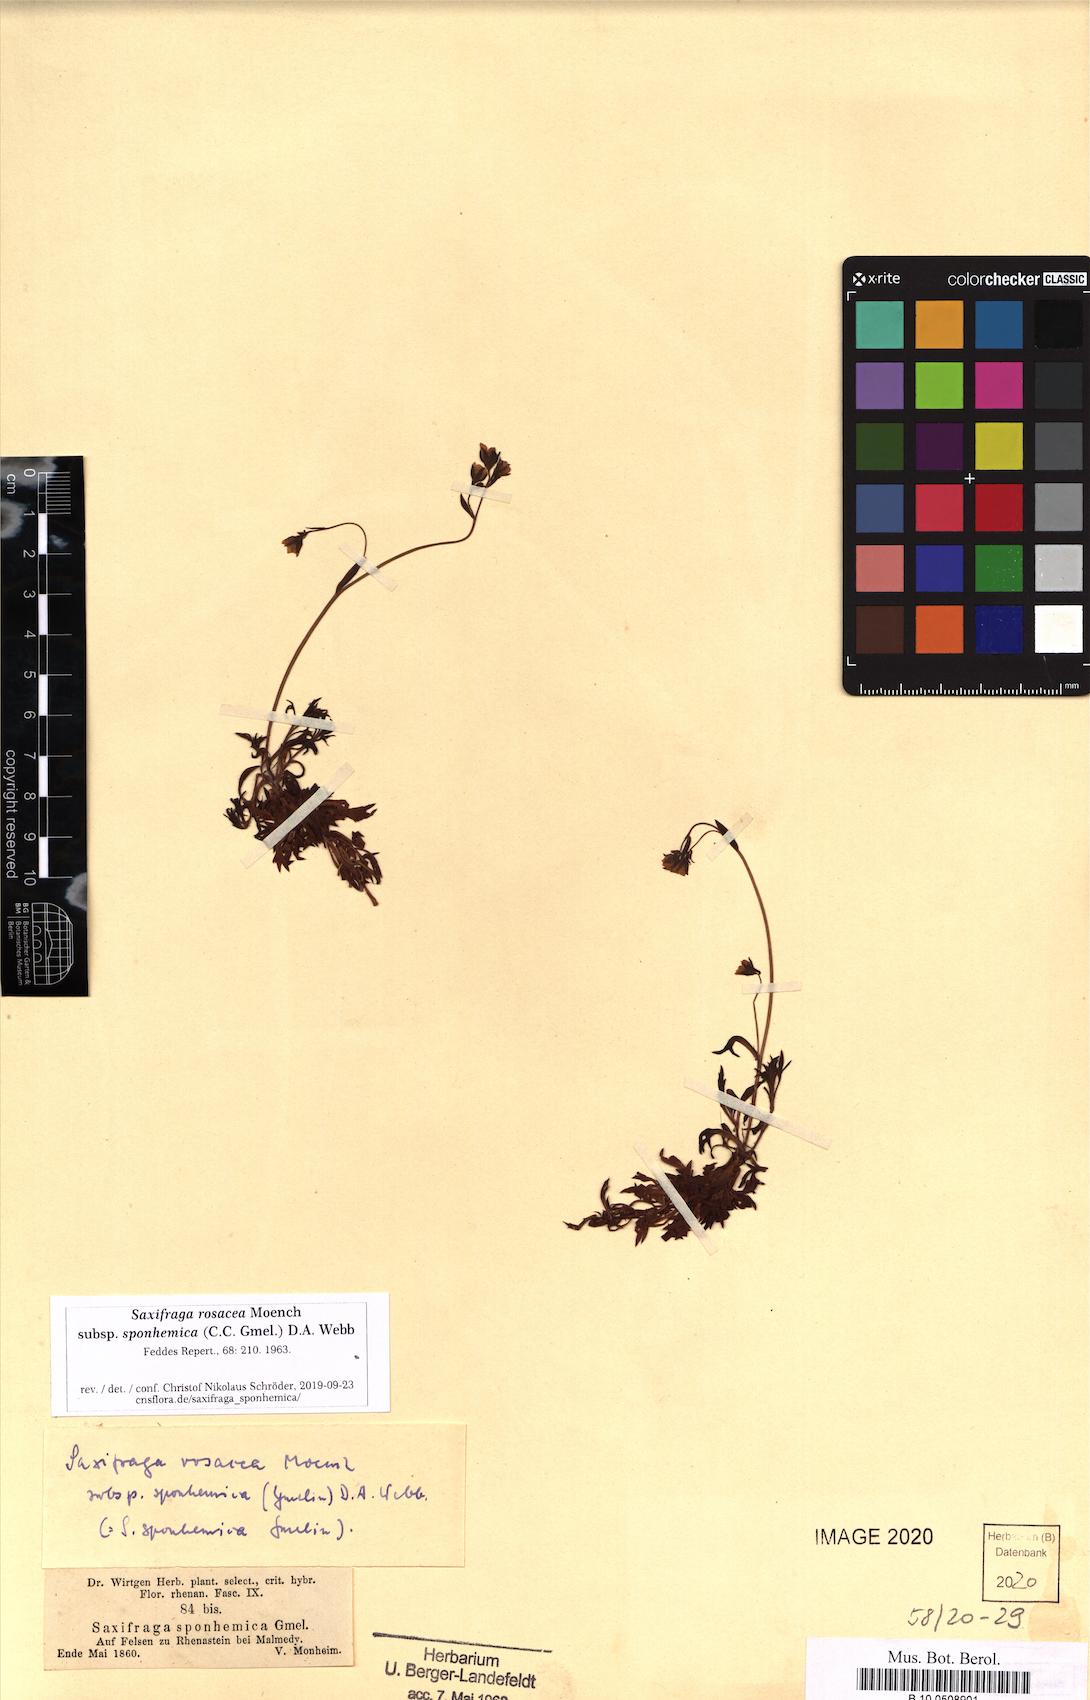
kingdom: Plantae
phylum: Tracheophyta
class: Magnoliopsida
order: Saxifragales
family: Saxifragaceae
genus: Saxifraga
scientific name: Saxifraga rosacea
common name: Irish saxifrage
